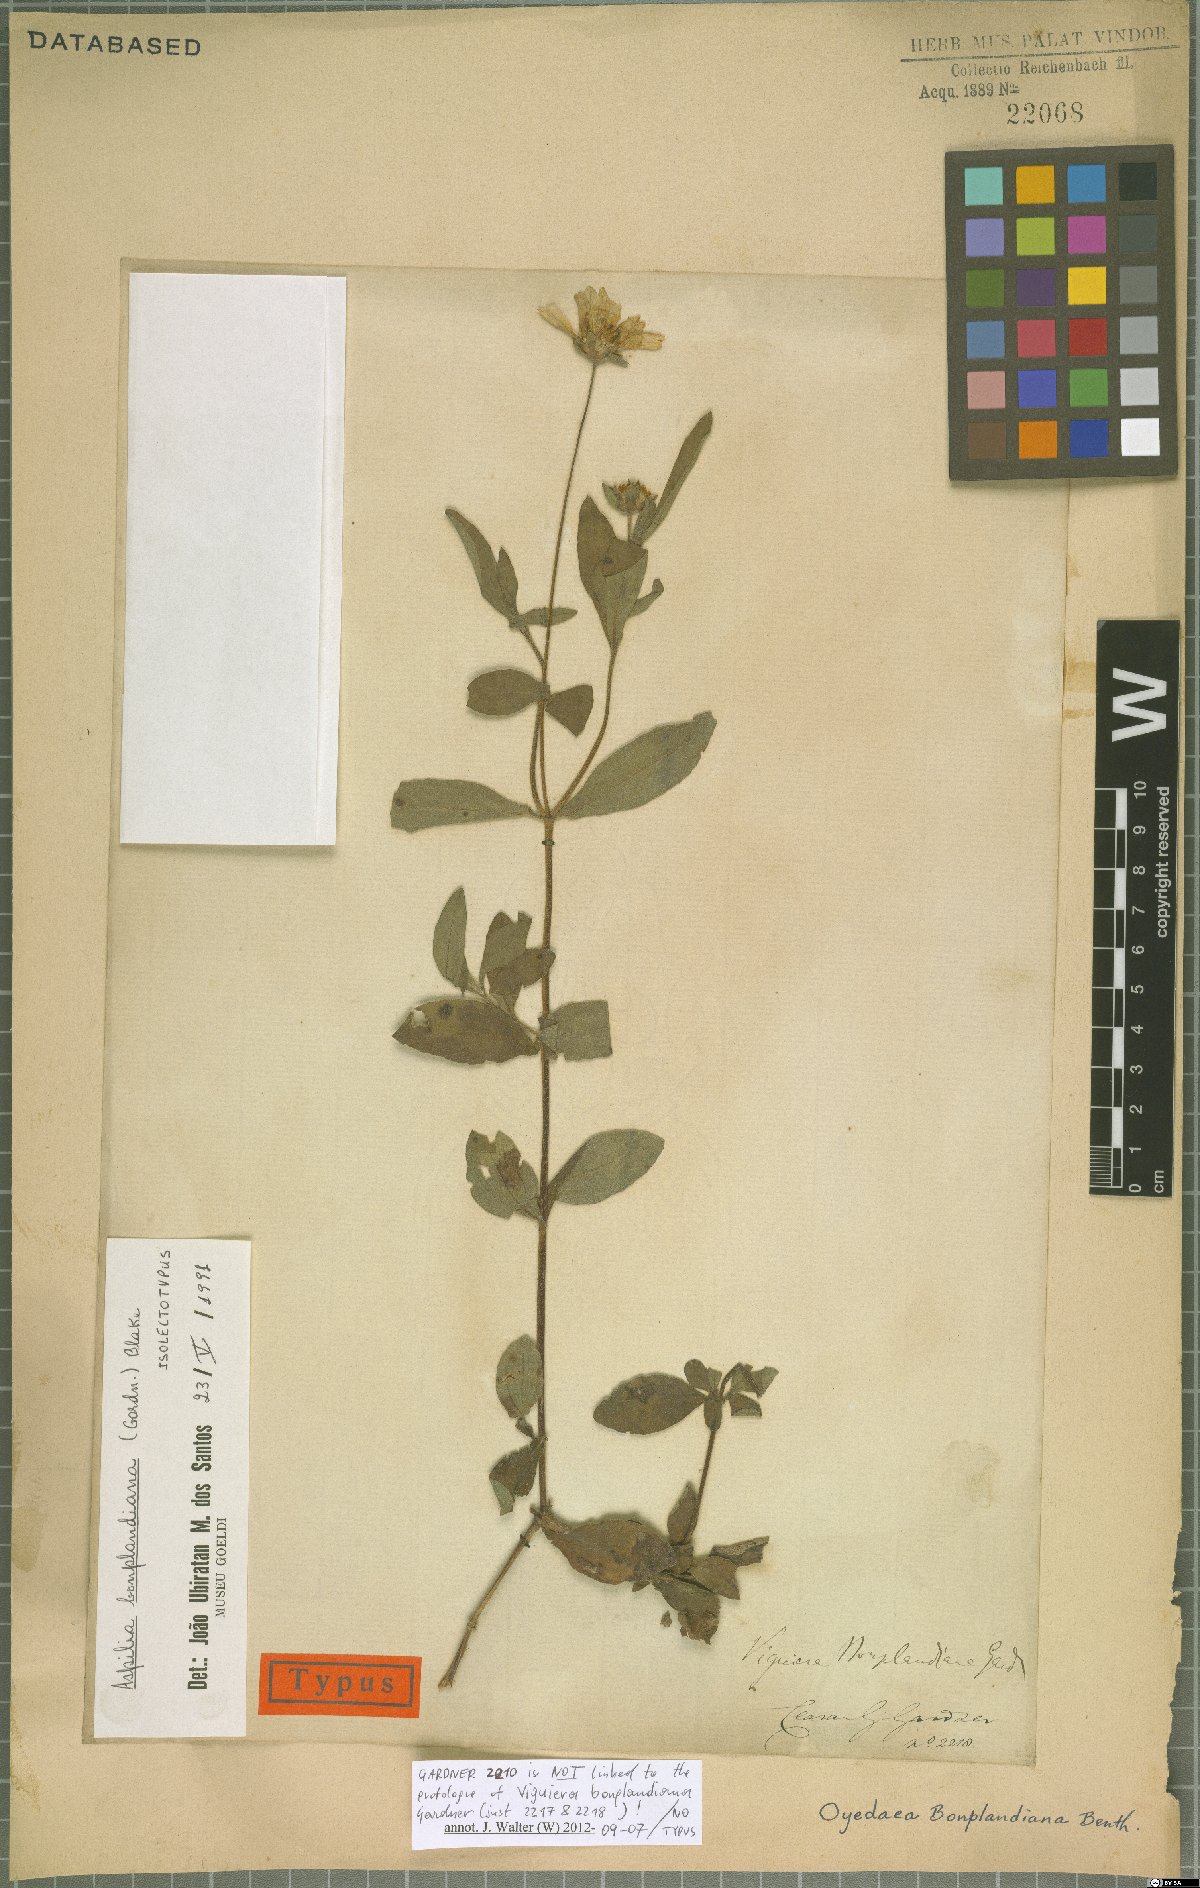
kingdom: Plantae
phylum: Tracheophyta
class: Magnoliopsida
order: Asterales
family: Asteraceae
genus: Wedelia
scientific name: Wedelia bonplandiana
